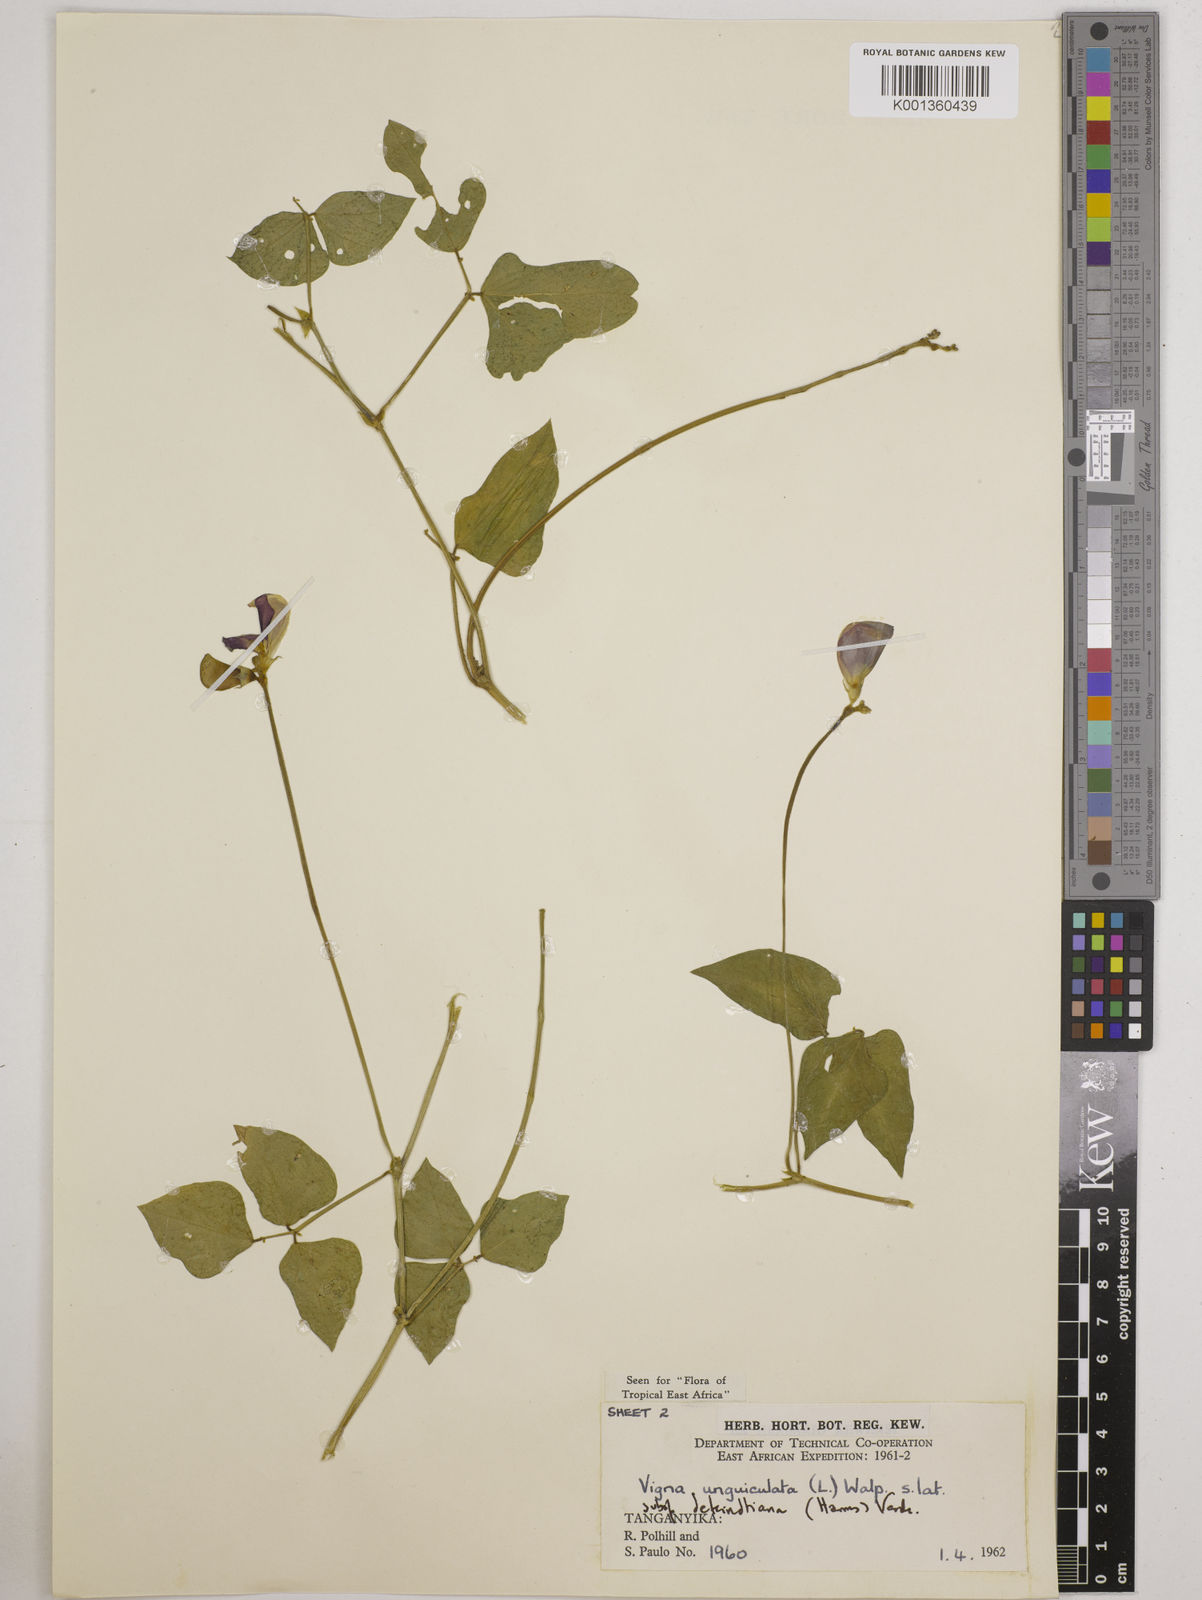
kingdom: Plantae
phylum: Tracheophyta
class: Magnoliopsida
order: Fabales
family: Fabaceae
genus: Vigna
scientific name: Vigna
